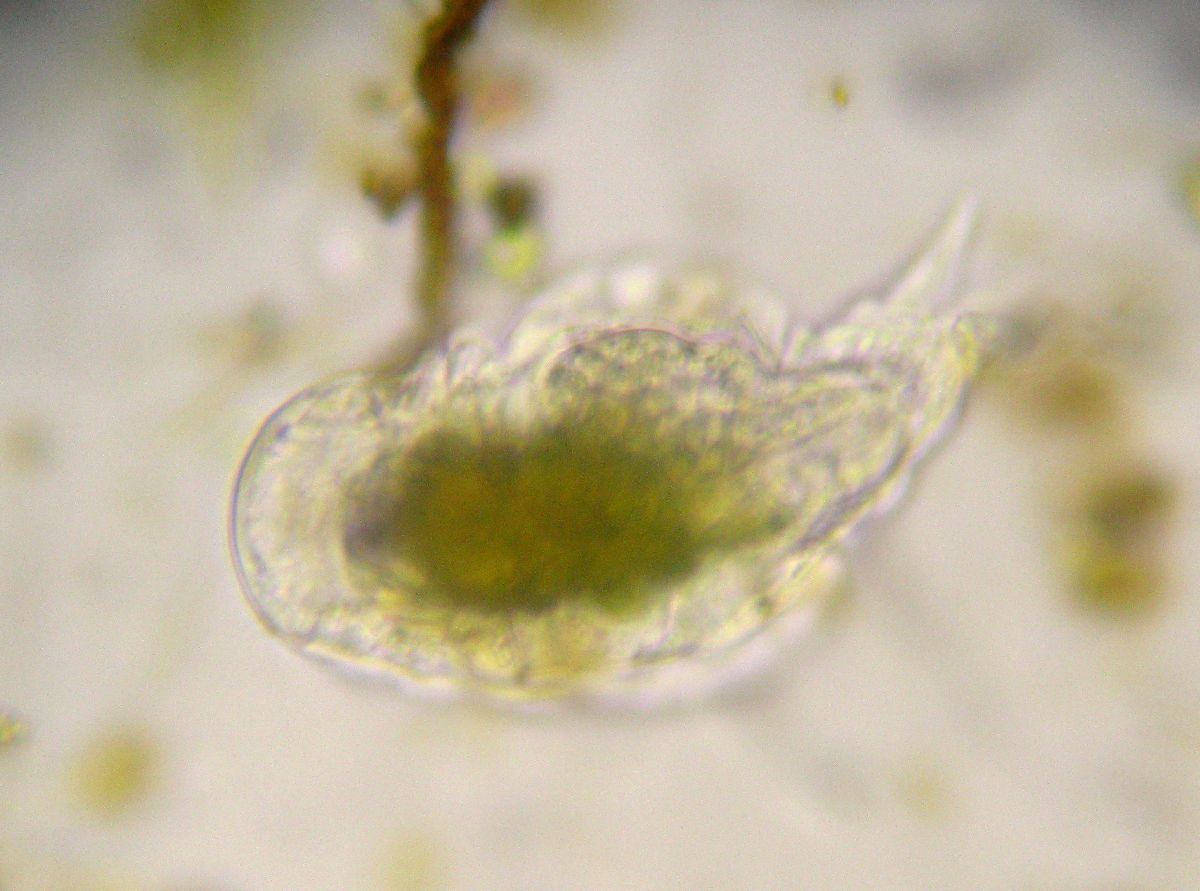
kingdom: Animalia
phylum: Rotifera
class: Eurotatoria
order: Ploima
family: Notommatidae
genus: Notommata
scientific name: Notommata tripus
